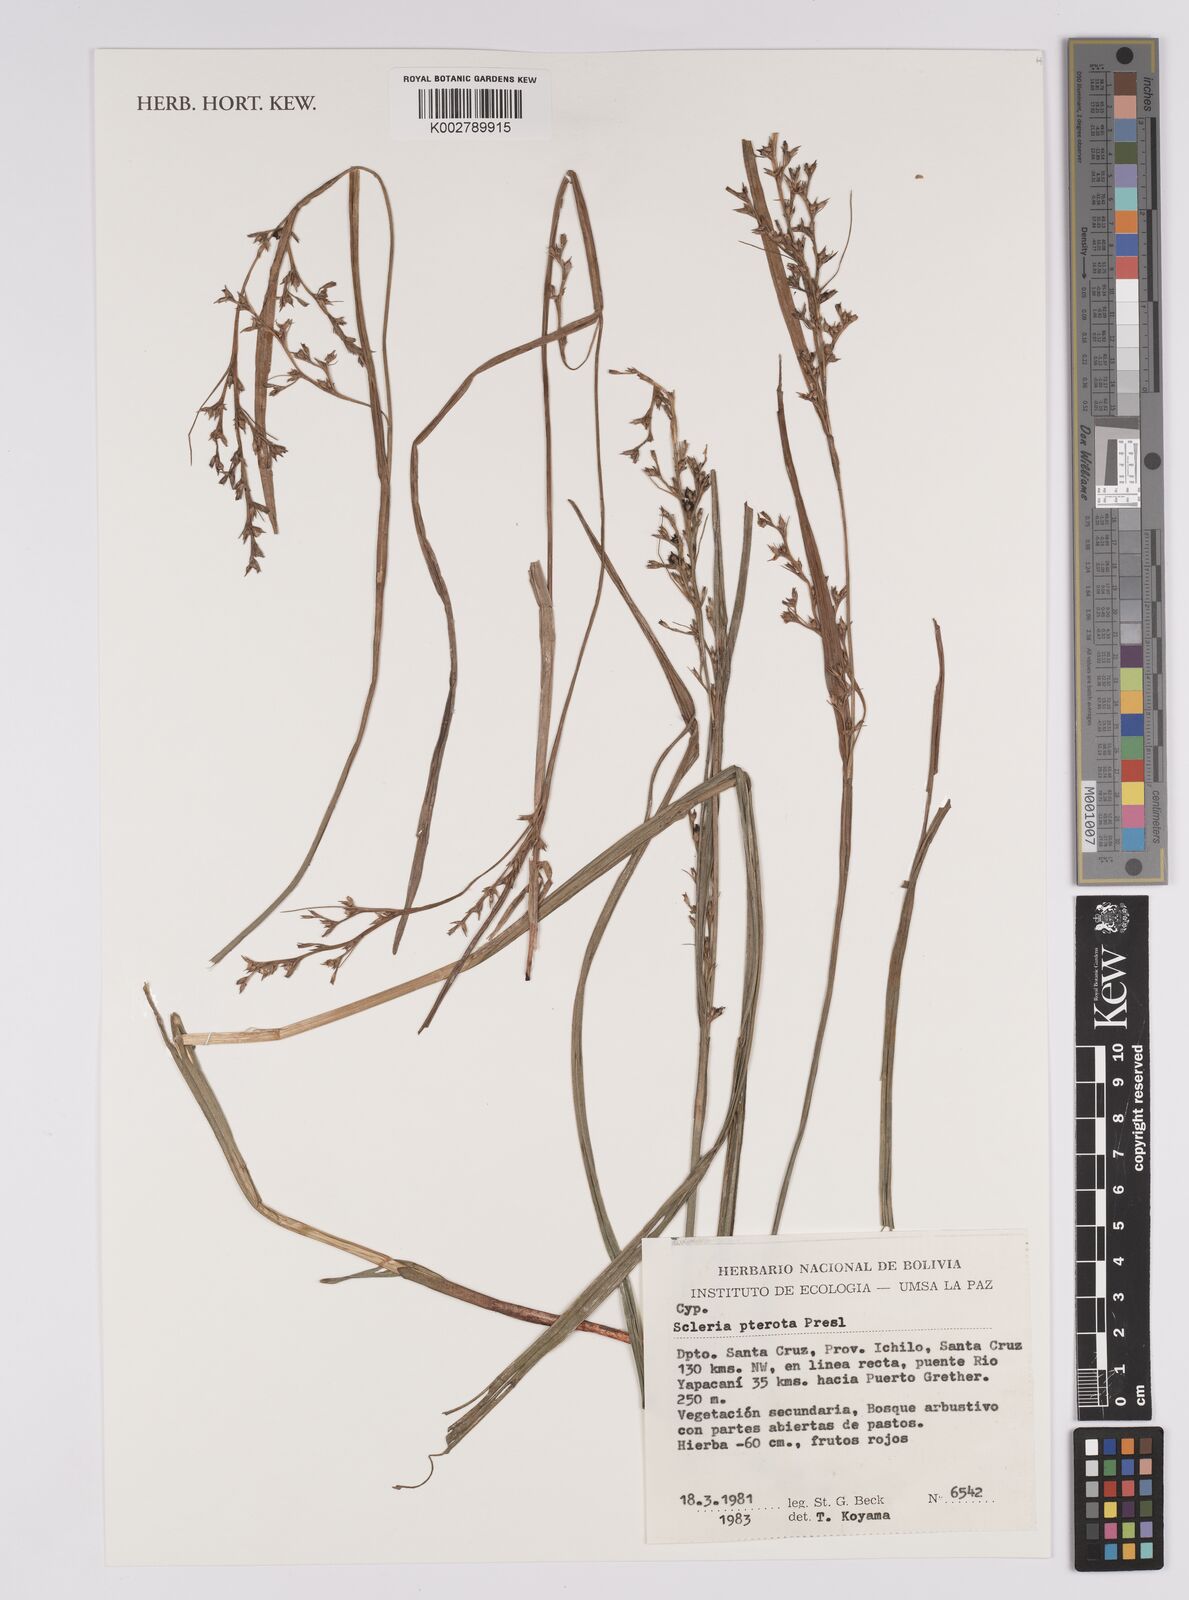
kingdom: Plantae
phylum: Tracheophyta
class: Liliopsida
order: Poales
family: Cyperaceae
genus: Scleria
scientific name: Scleria gaertneri
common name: Cortadera blanca
